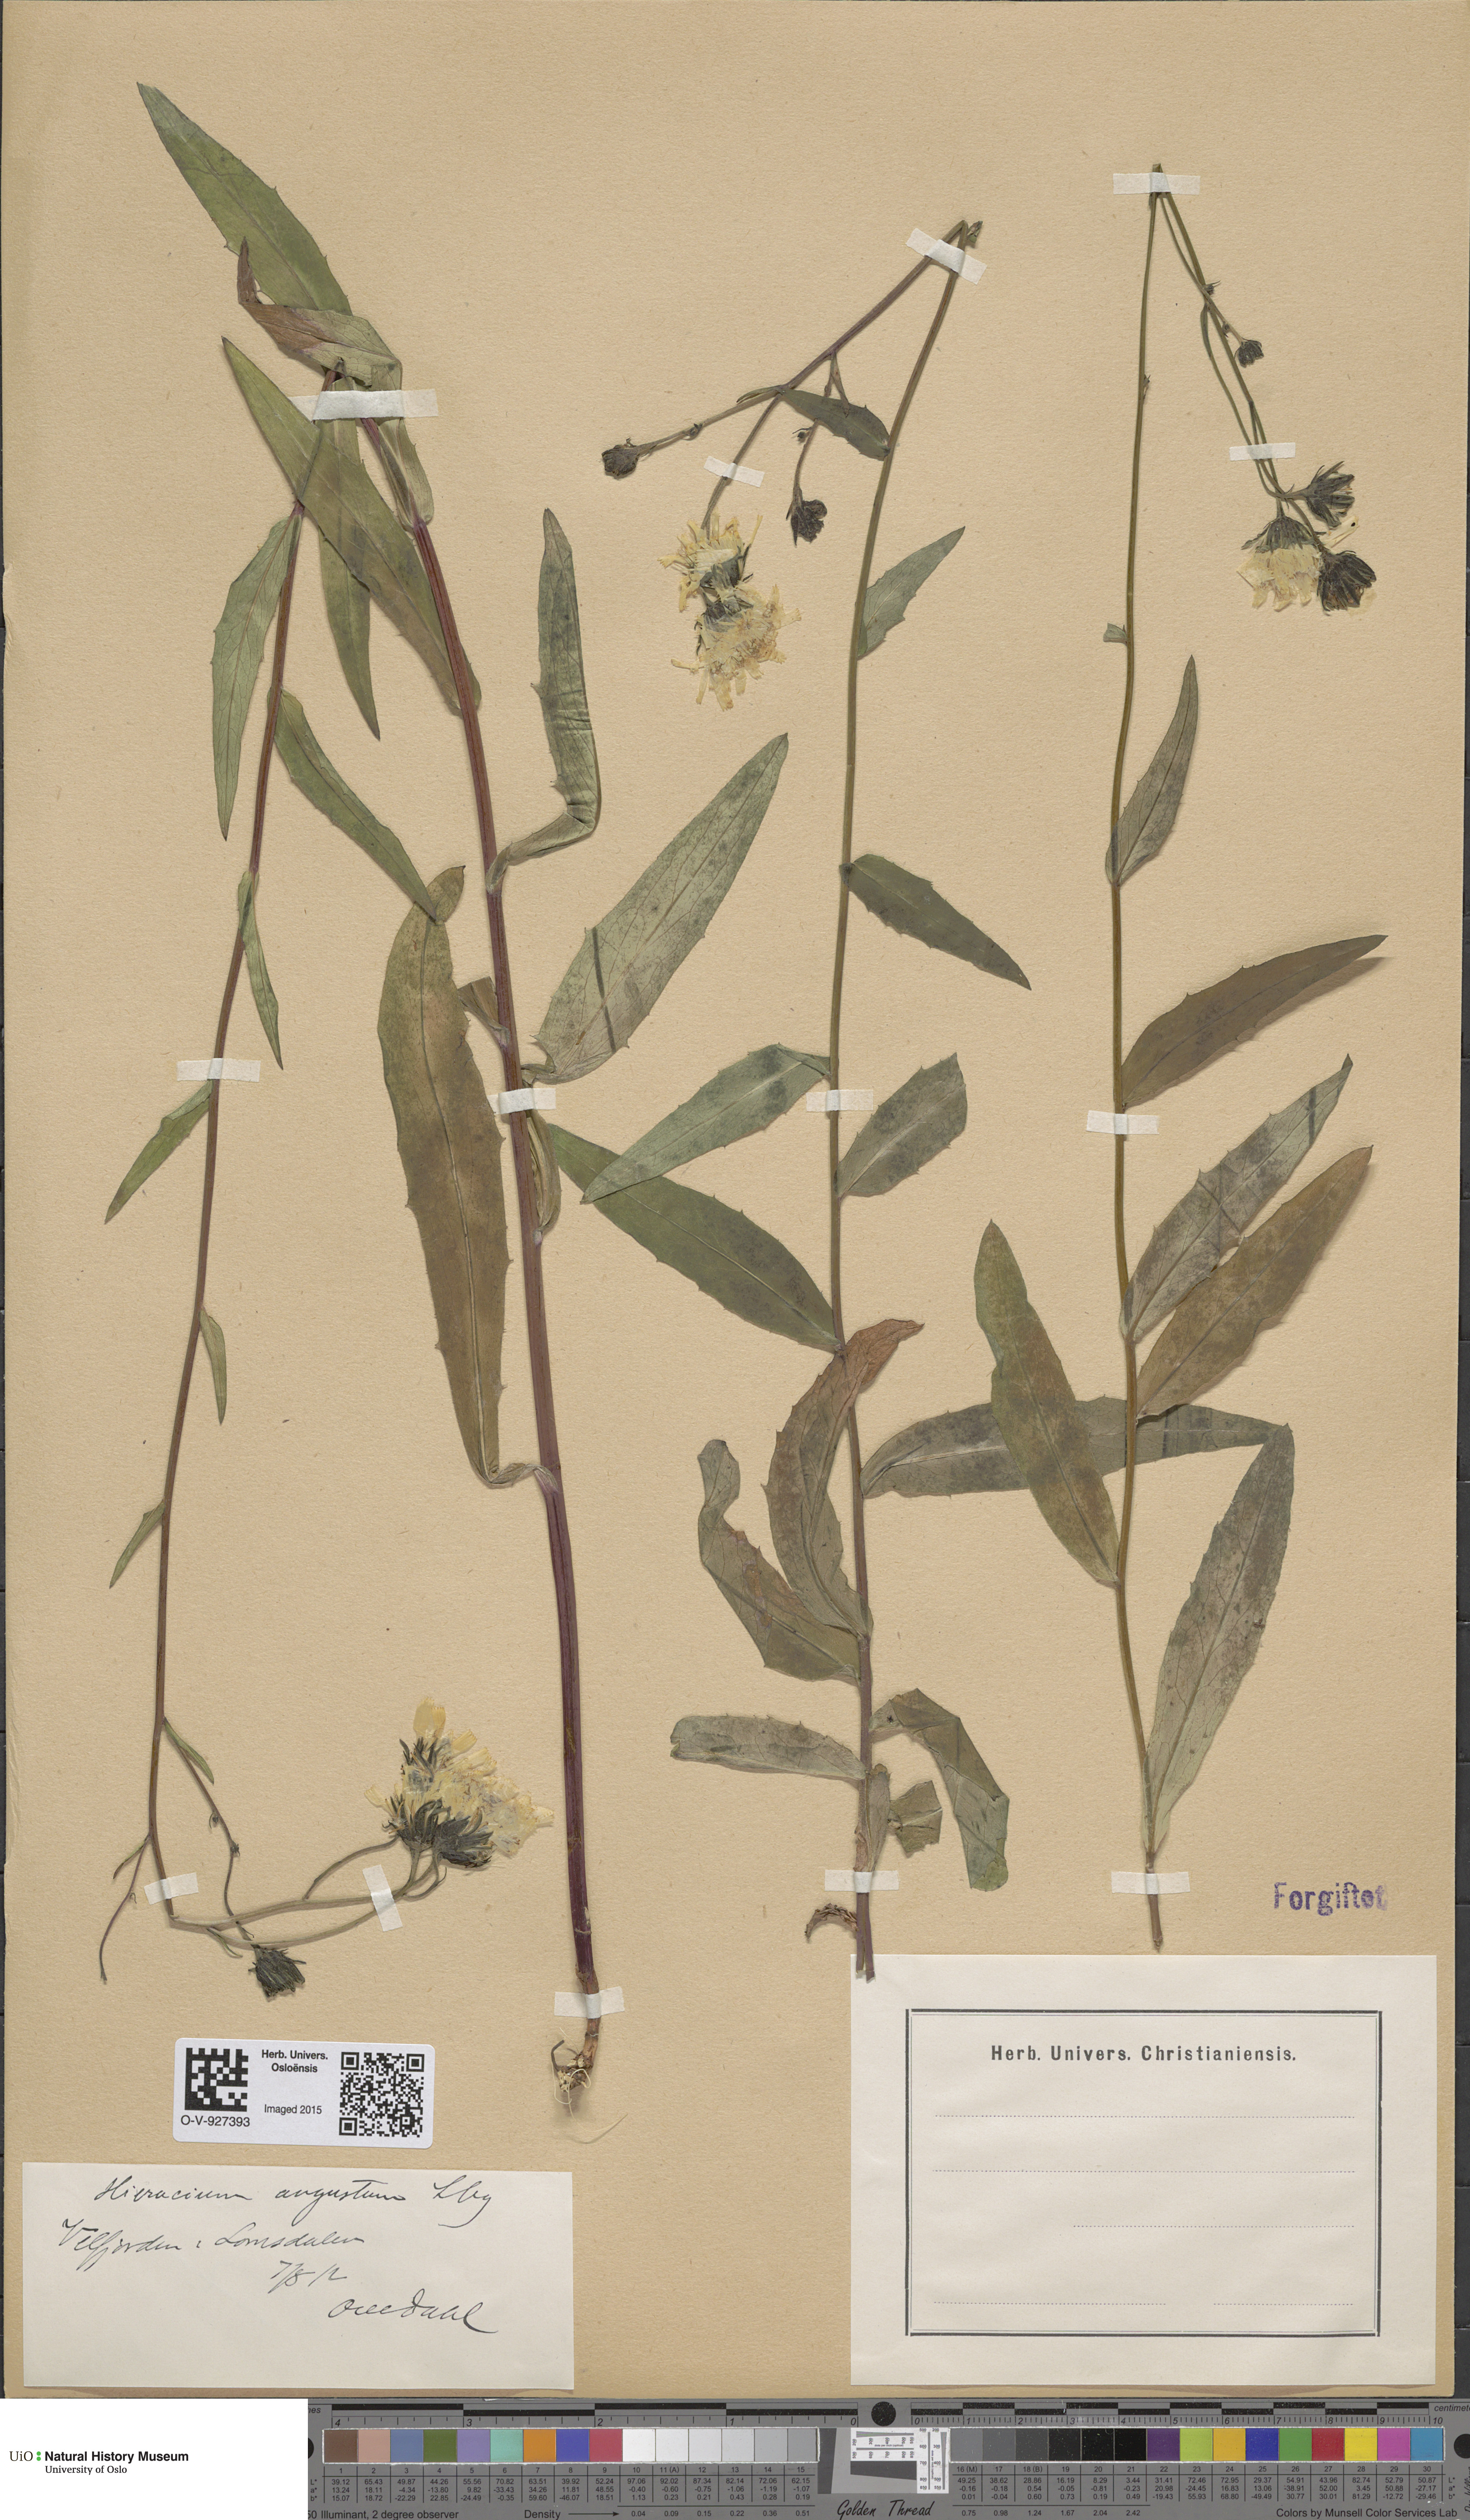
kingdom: Plantae
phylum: Tracheophyta
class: Magnoliopsida
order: Asterales
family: Asteraceae
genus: Hieracium
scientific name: Hieracium angustum
